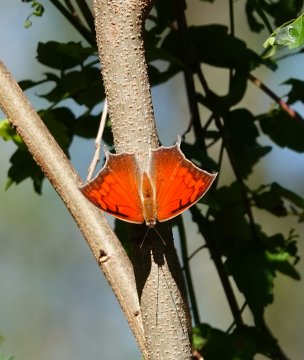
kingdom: Animalia
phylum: Arthropoda
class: Insecta
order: Lepidoptera
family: Nymphalidae
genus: Anaea
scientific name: Anaea aidea
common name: Tropical Leafwing
